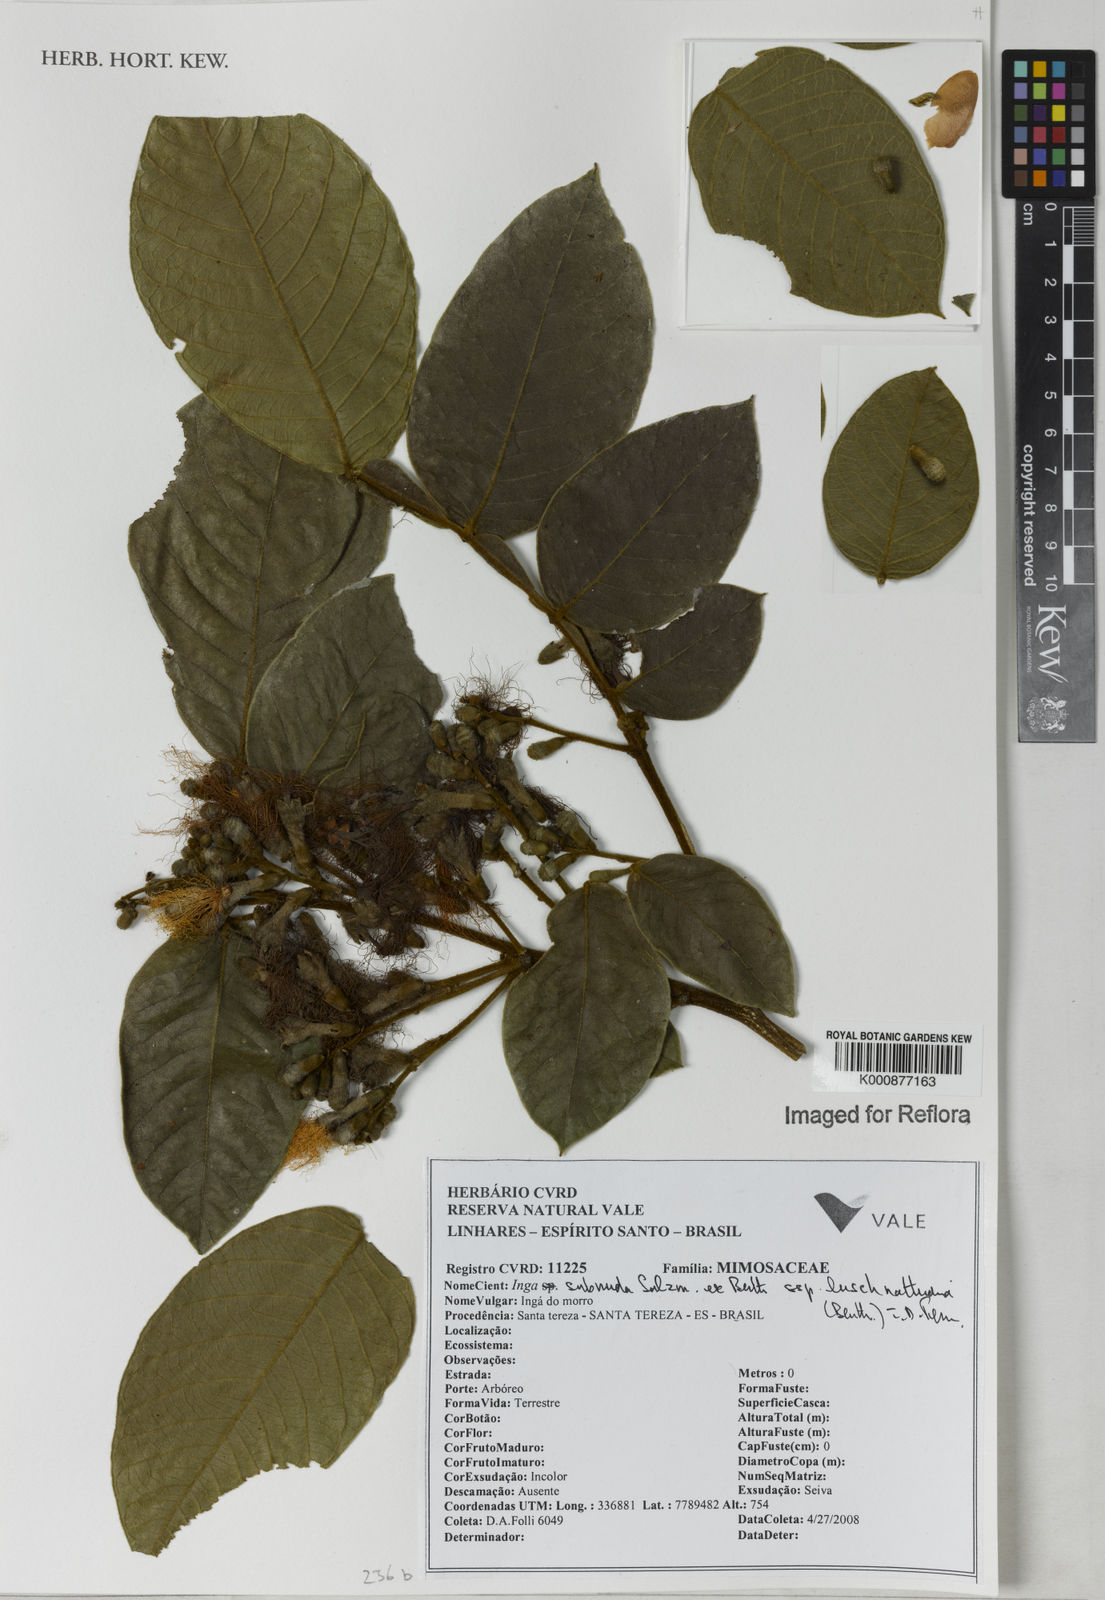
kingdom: Plantae
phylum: Tracheophyta
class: Magnoliopsida
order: Fabales
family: Fabaceae
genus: Inga
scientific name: Inga subnuda
